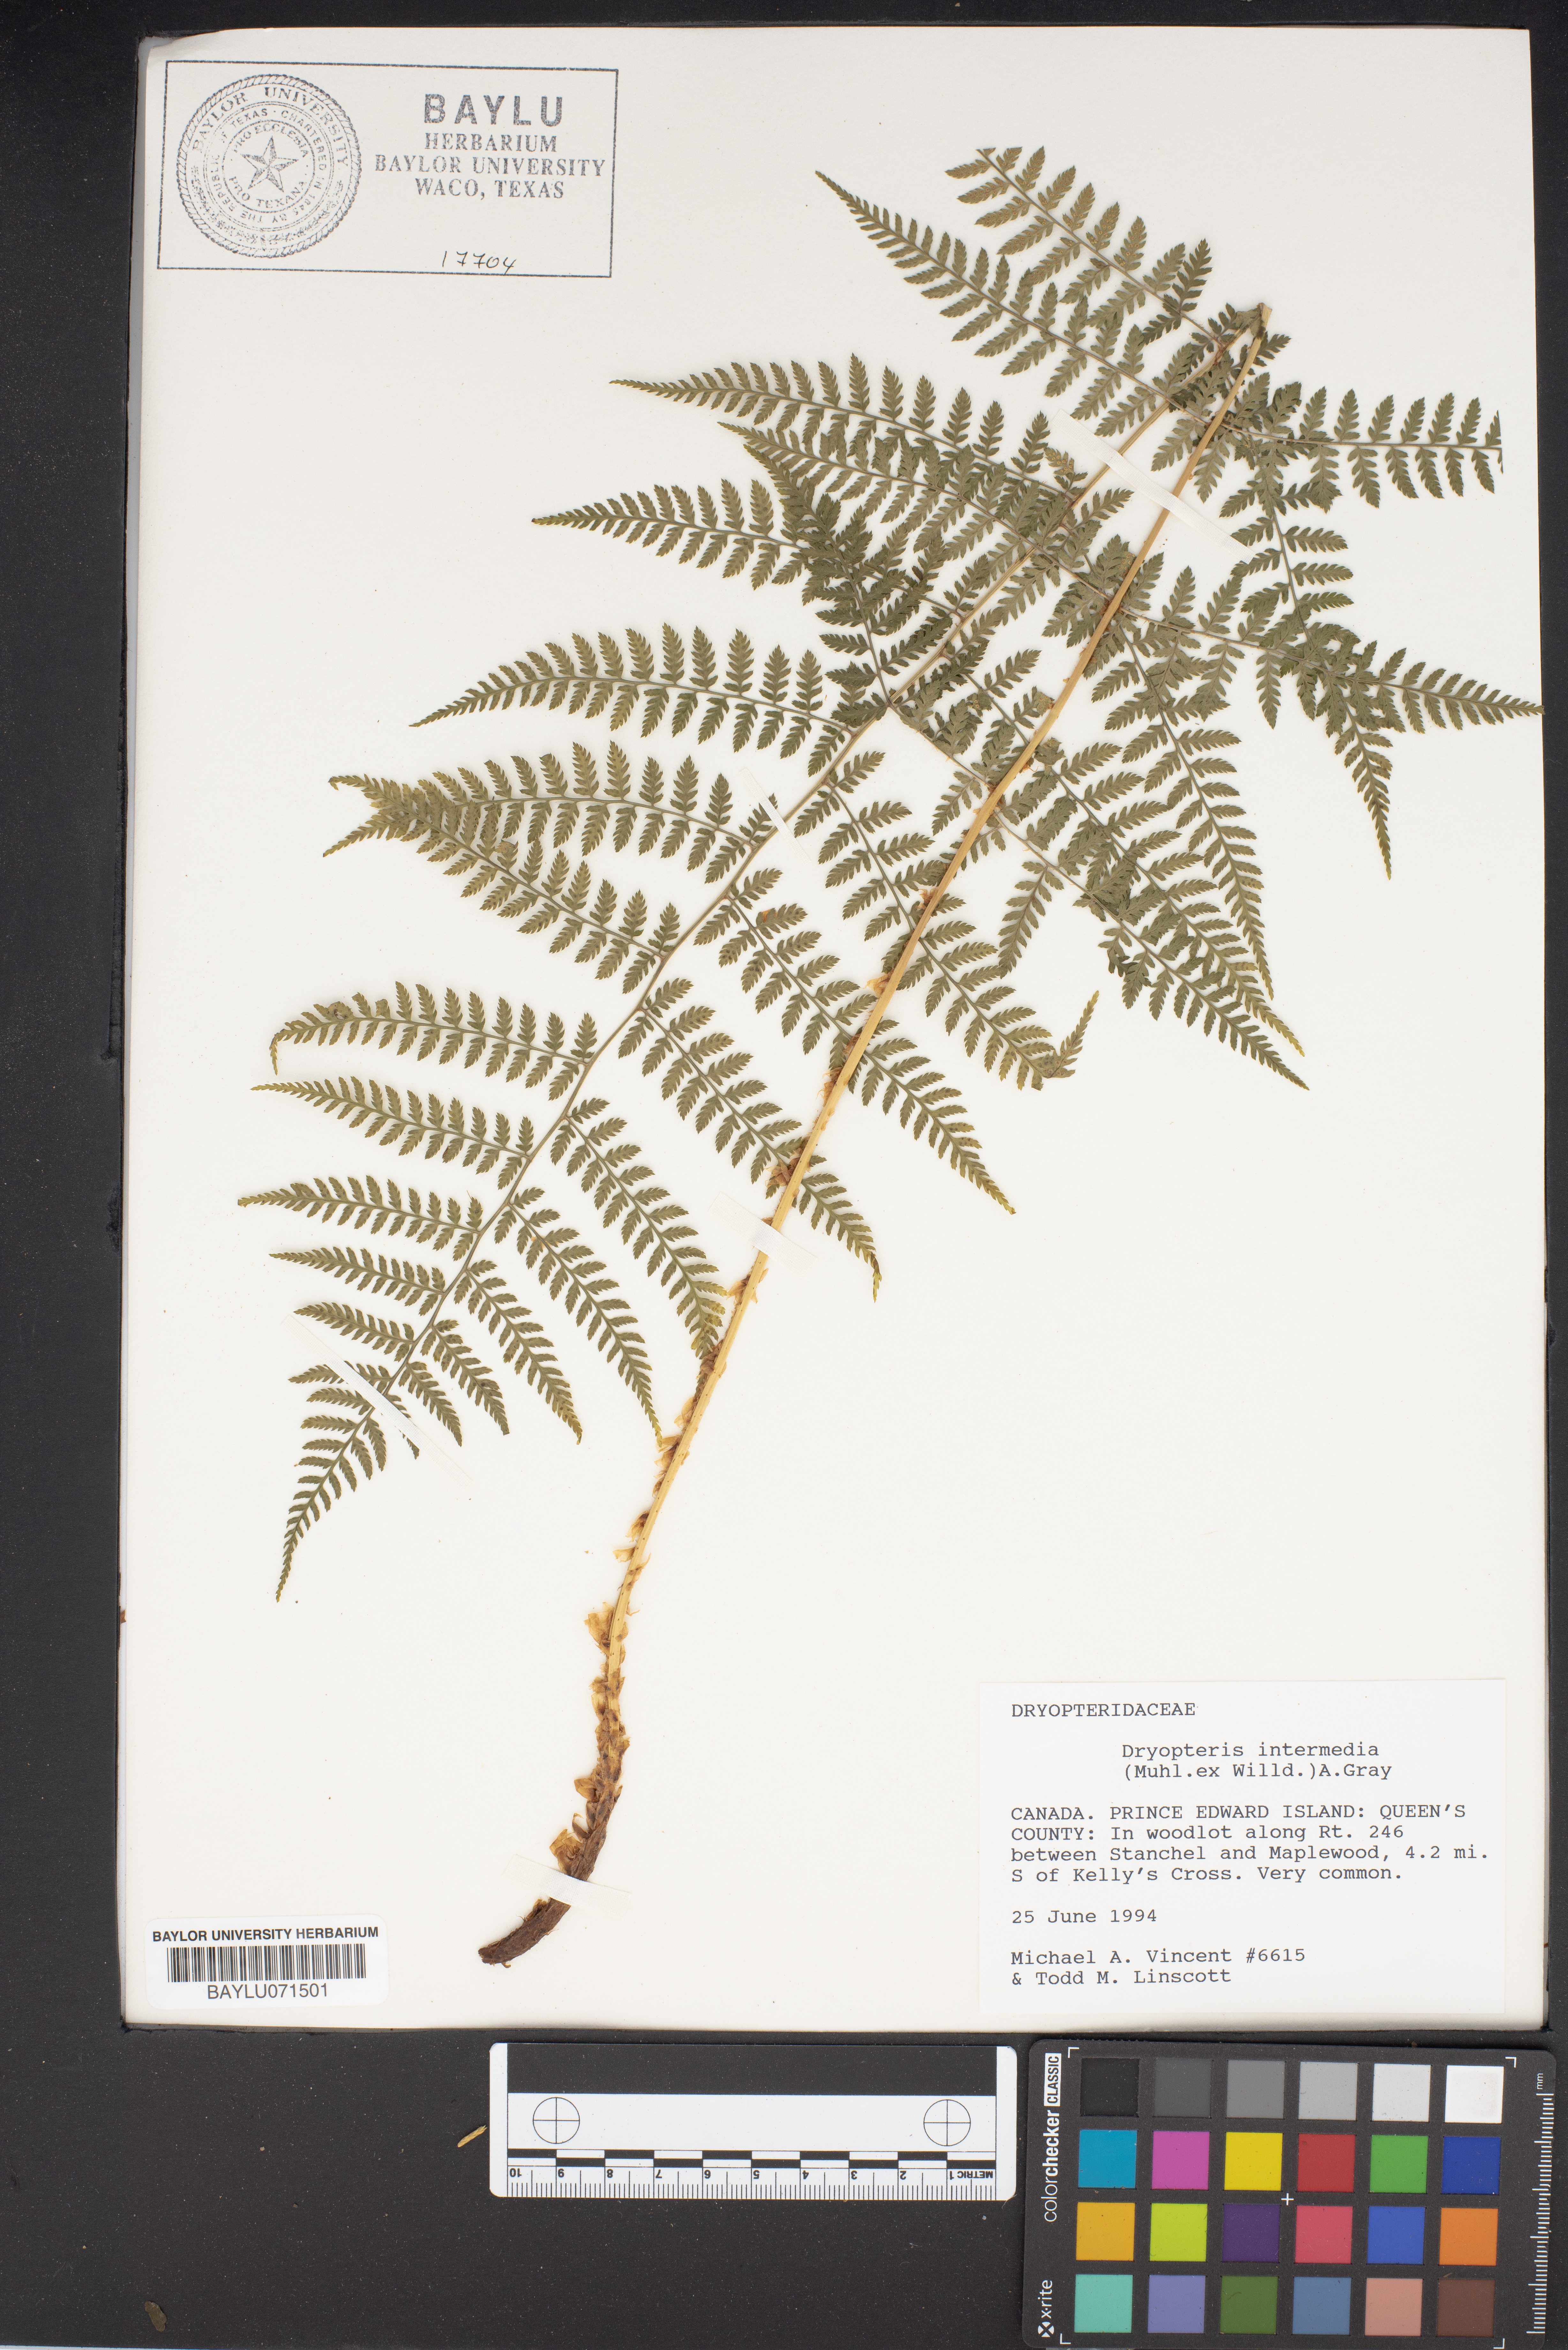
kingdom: Plantae
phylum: Tracheophyta
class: Polypodiopsida
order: Polypodiales
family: Dryopteridaceae
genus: Dryopteris
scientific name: Dryopteris intermedia
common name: Evergreen wood fern
